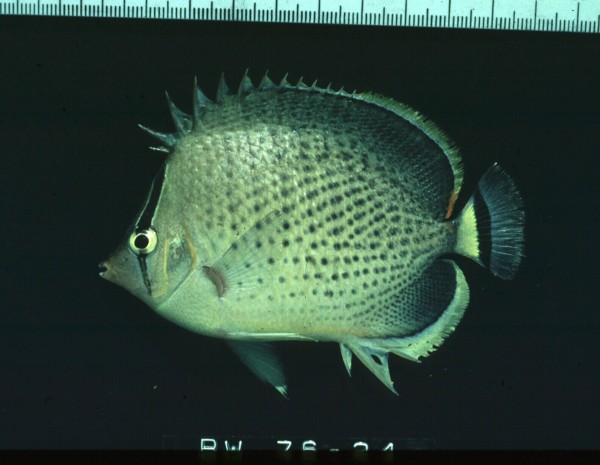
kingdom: Animalia
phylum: Chordata
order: Perciformes
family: Chaetodontidae
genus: Chaetodon
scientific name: Chaetodon guttatissimus
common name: Spotted butterflyfish
